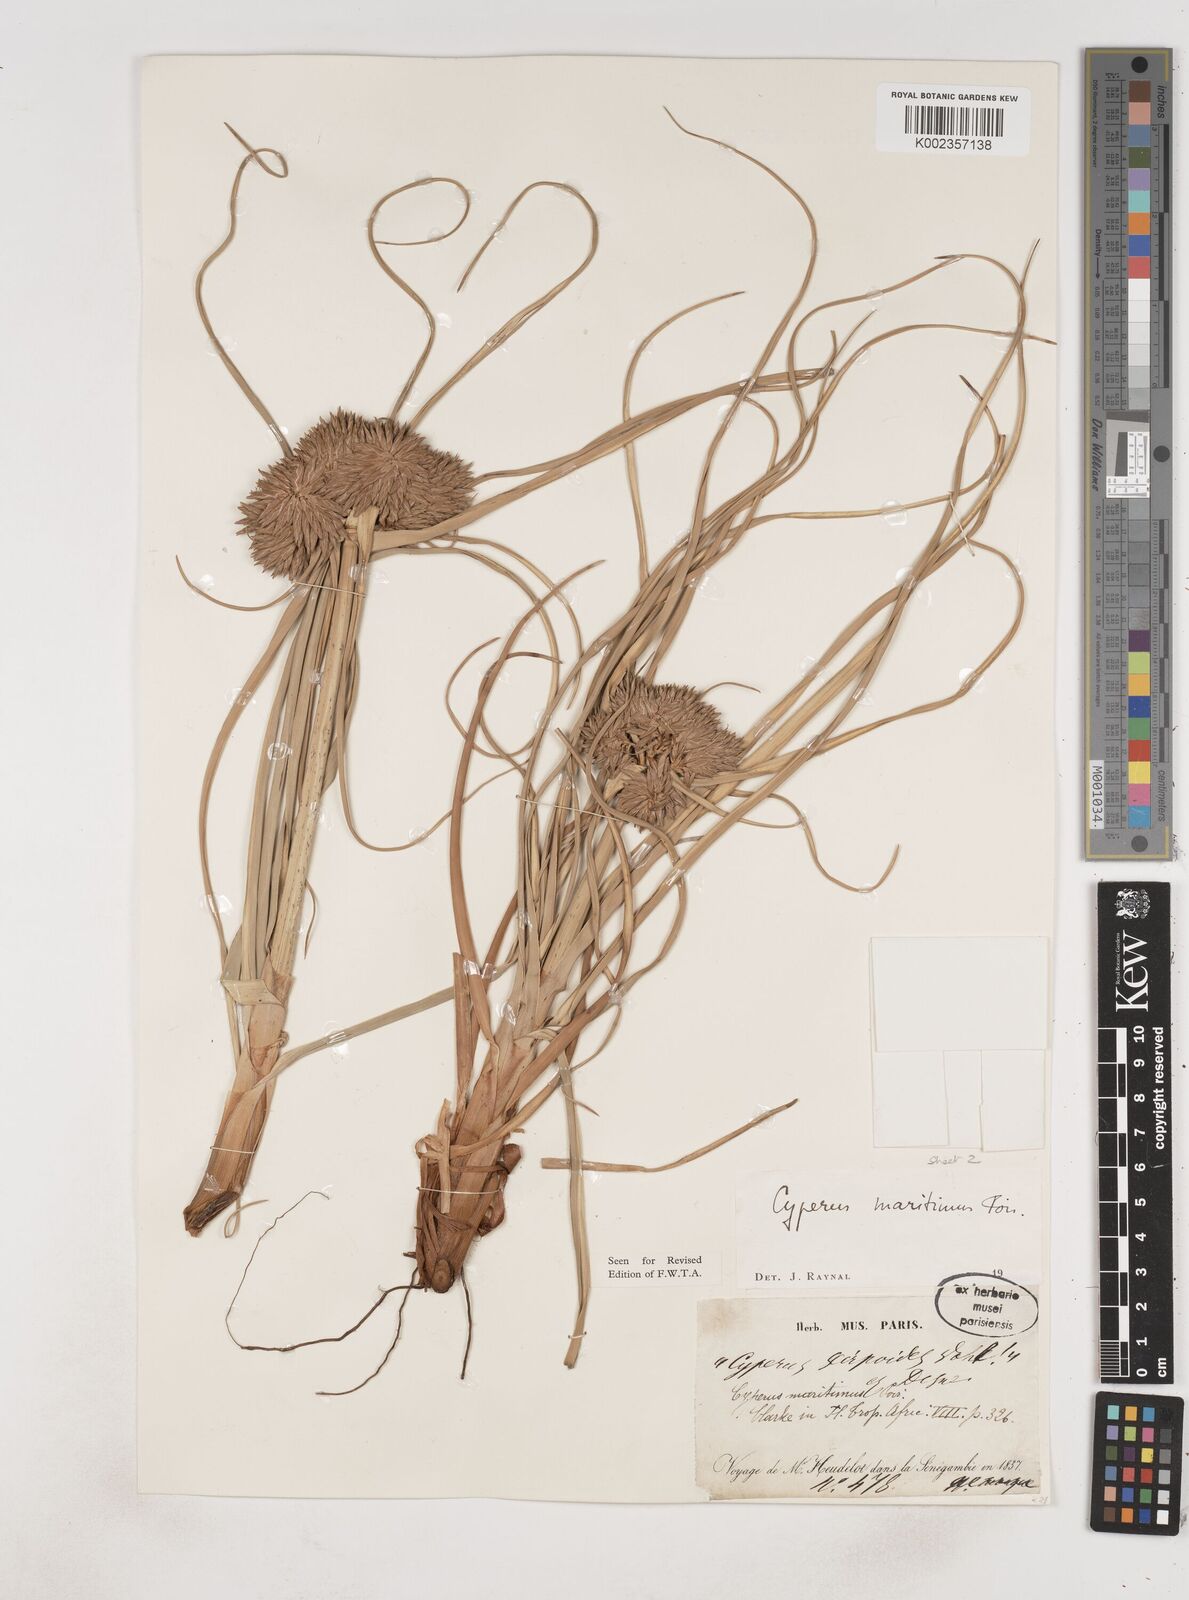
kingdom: Plantae
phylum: Tracheophyta
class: Liliopsida
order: Poales
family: Cyperaceae
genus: Cyperus
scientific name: Cyperus crassipes
